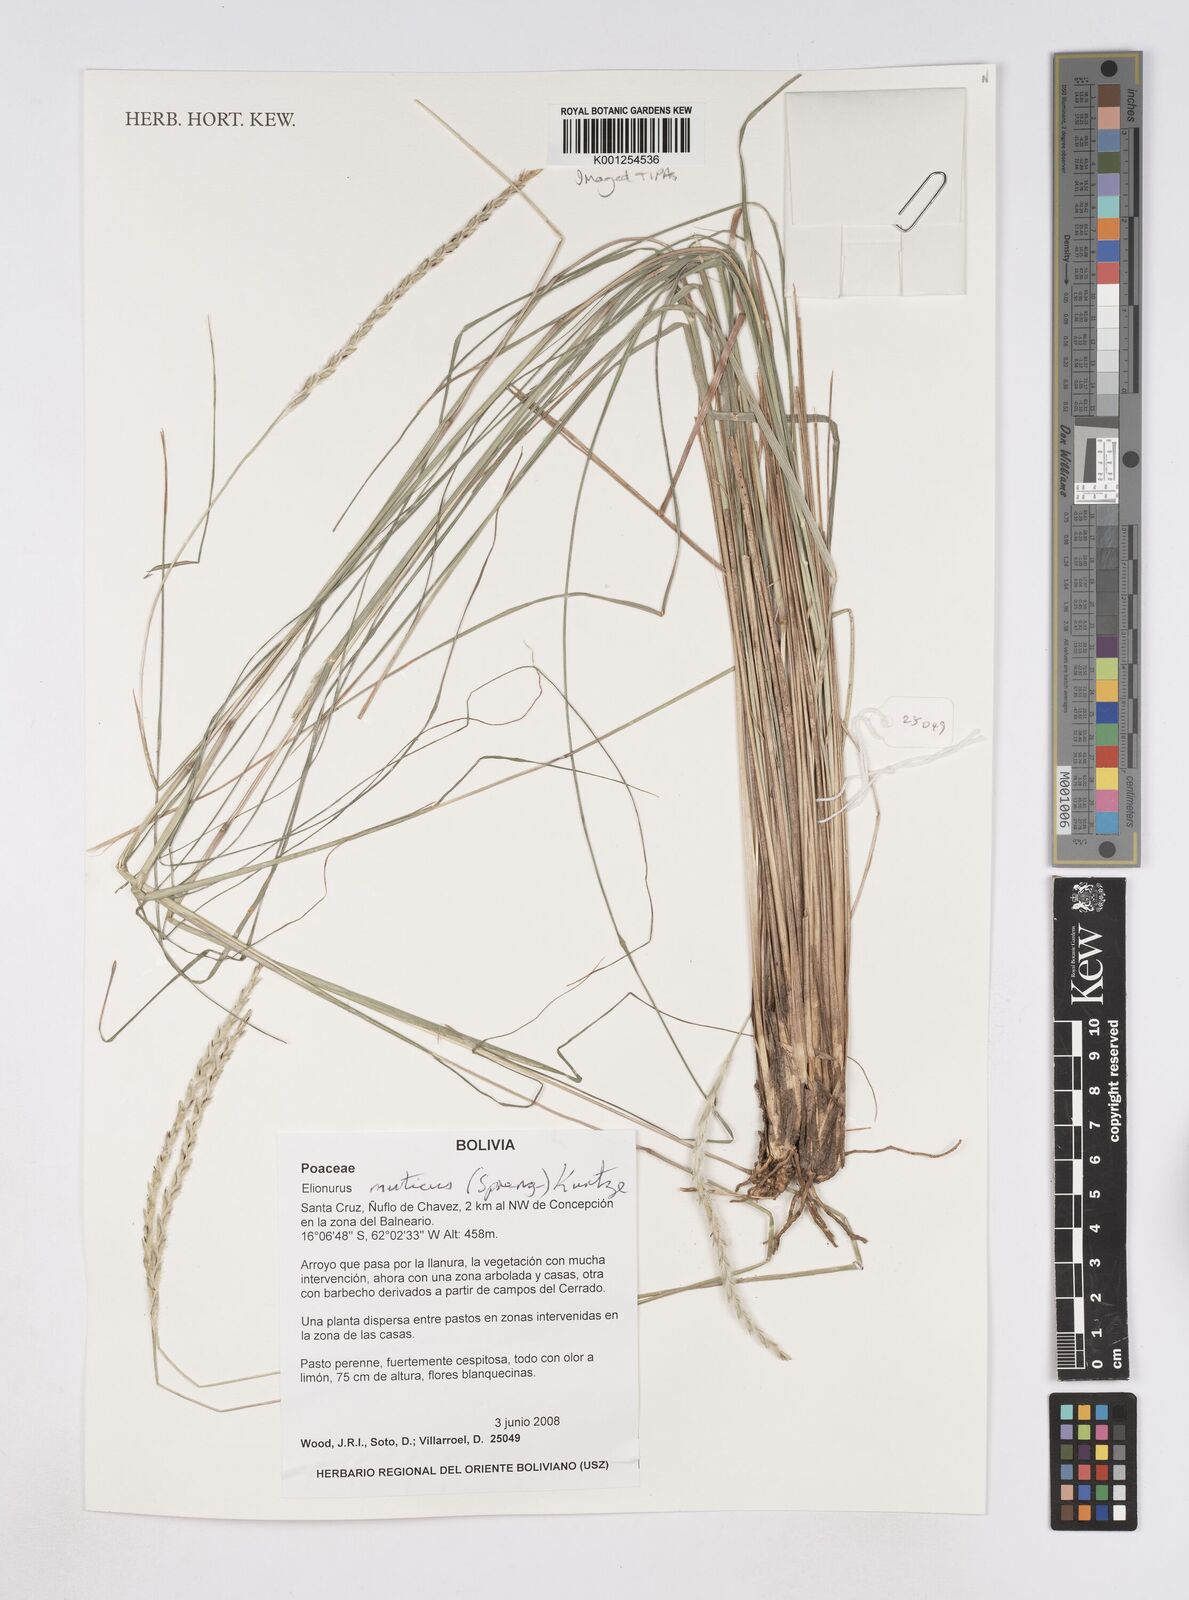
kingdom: Plantae
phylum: Tracheophyta
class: Liliopsida
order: Poales
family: Poaceae
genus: Elionurus
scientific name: Elionurus muticus
